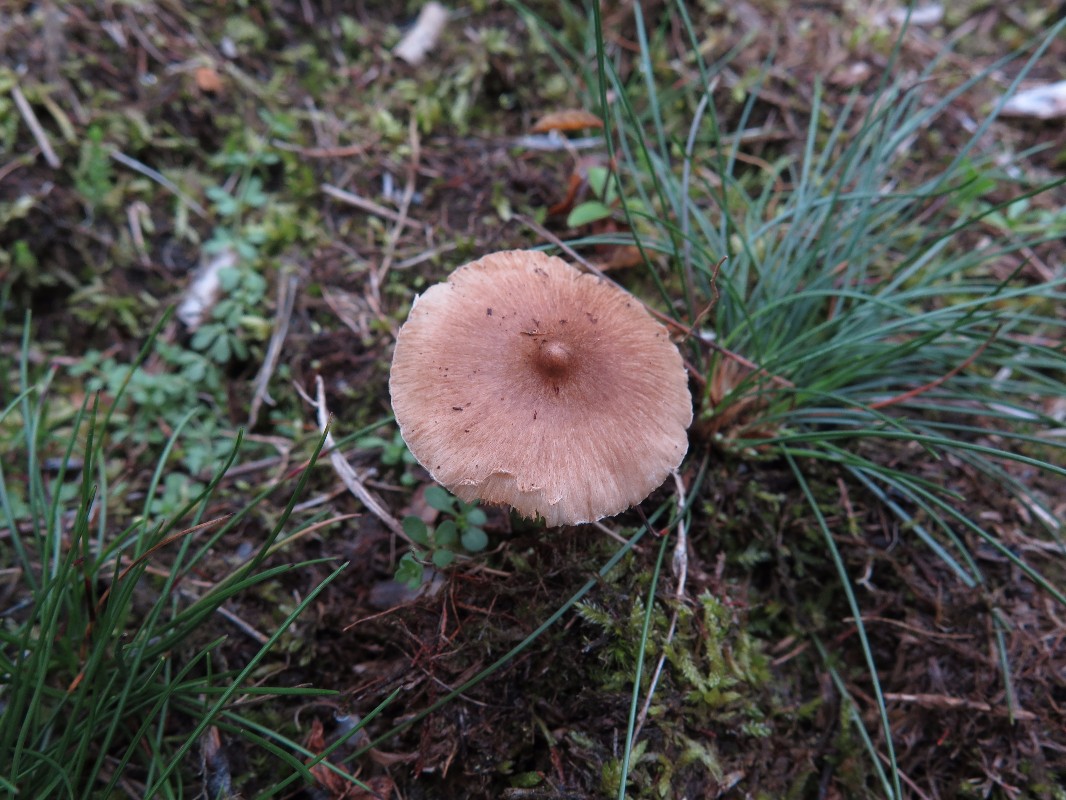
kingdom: Fungi
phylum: Basidiomycota
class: Agaricomycetes
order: Agaricales
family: Inocybaceae
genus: Inocybe
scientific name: Inocybe napipes
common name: roeknoldet trævlhat
